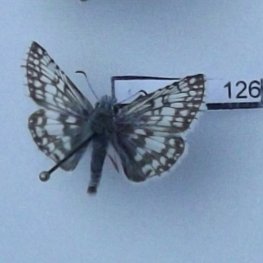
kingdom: Animalia
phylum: Arthropoda
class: Insecta
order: Lepidoptera
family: Hesperiidae
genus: Pyrgus
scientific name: Pyrgus communis
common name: Common Checkered-Skipper
